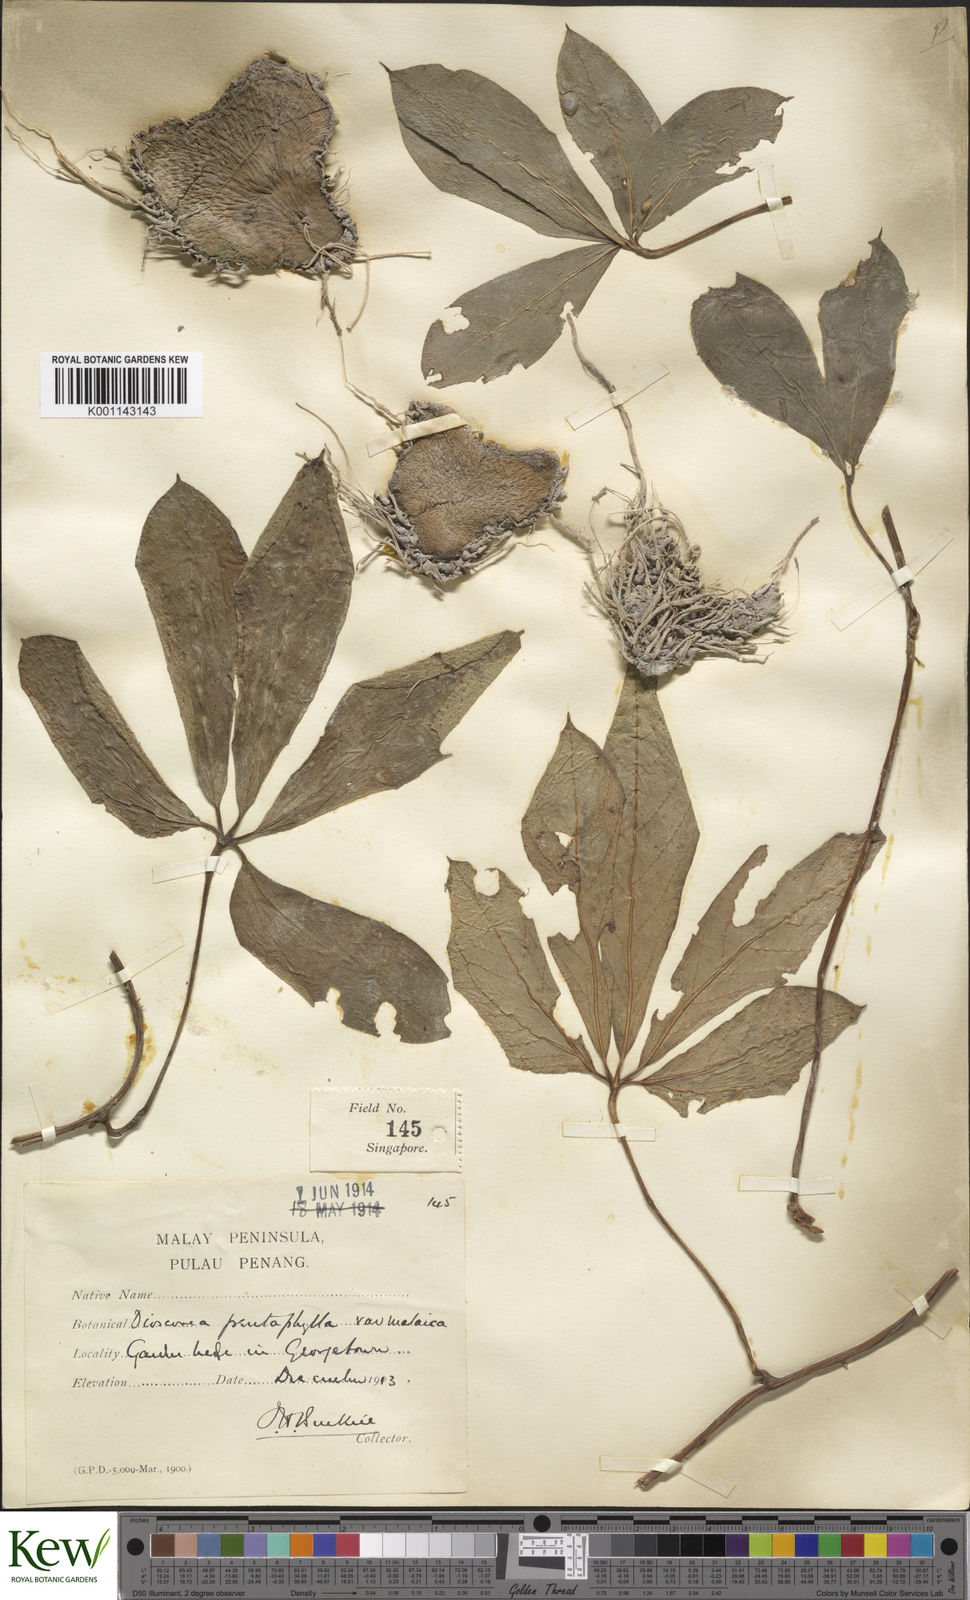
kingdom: Plantae
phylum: Tracheophyta
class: Liliopsida
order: Dioscoreales
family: Dioscoreaceae
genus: Dioscorea
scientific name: Dioscorea pentaphylla
